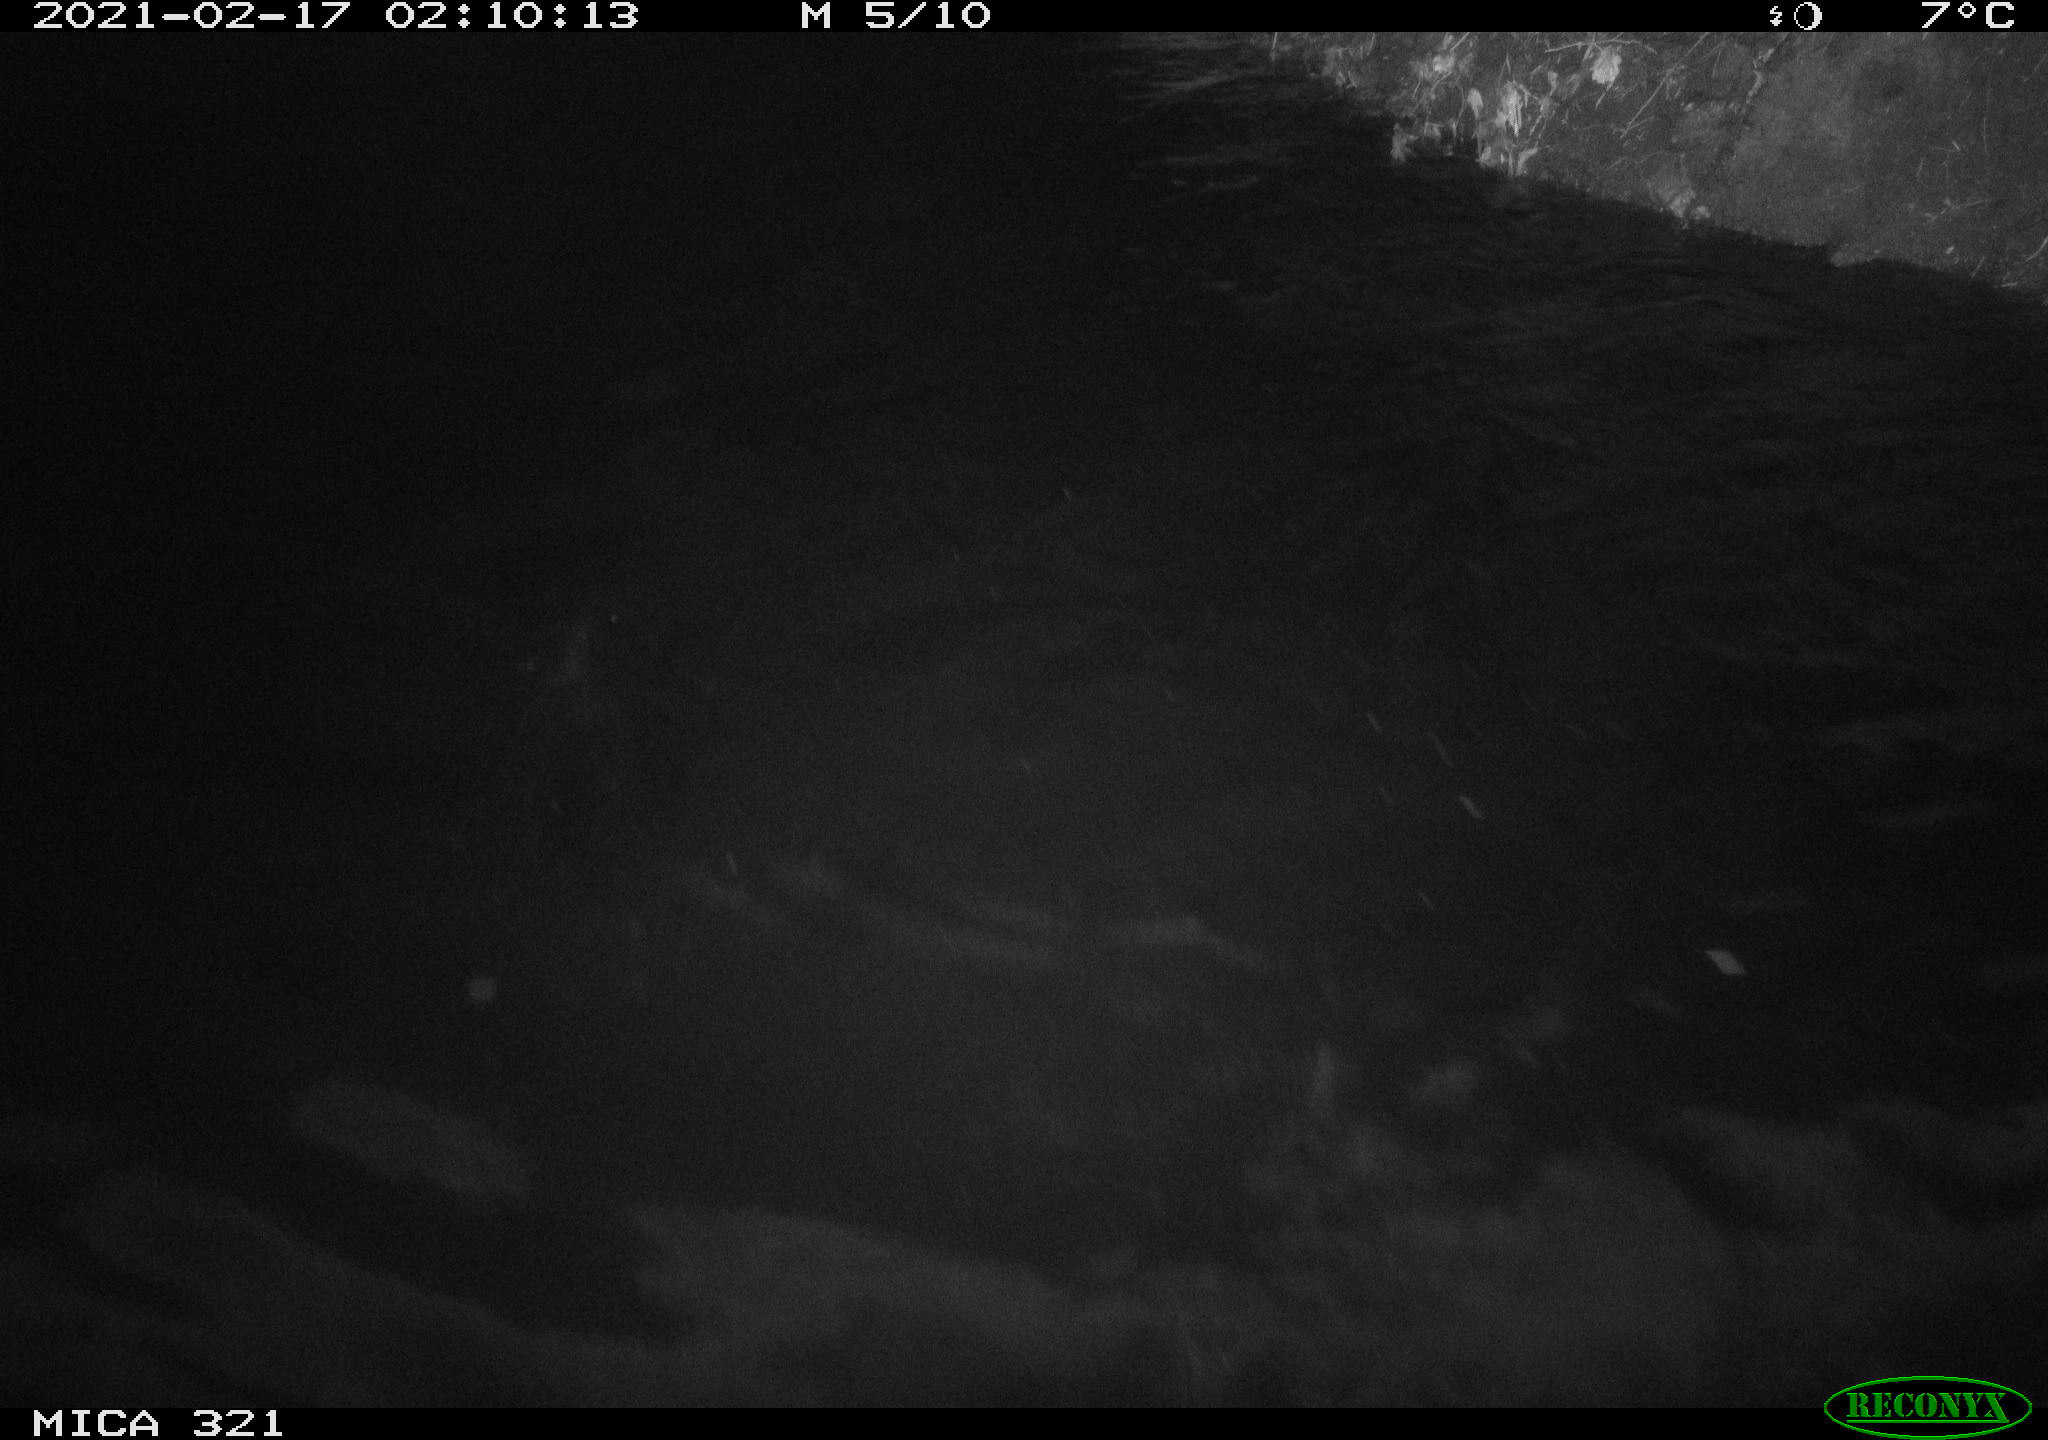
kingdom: Animalia
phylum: Chordata
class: Mammalia
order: Rodentia
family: Muridae
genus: Rattus
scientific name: Rattus norvegicus
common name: Brown rat
